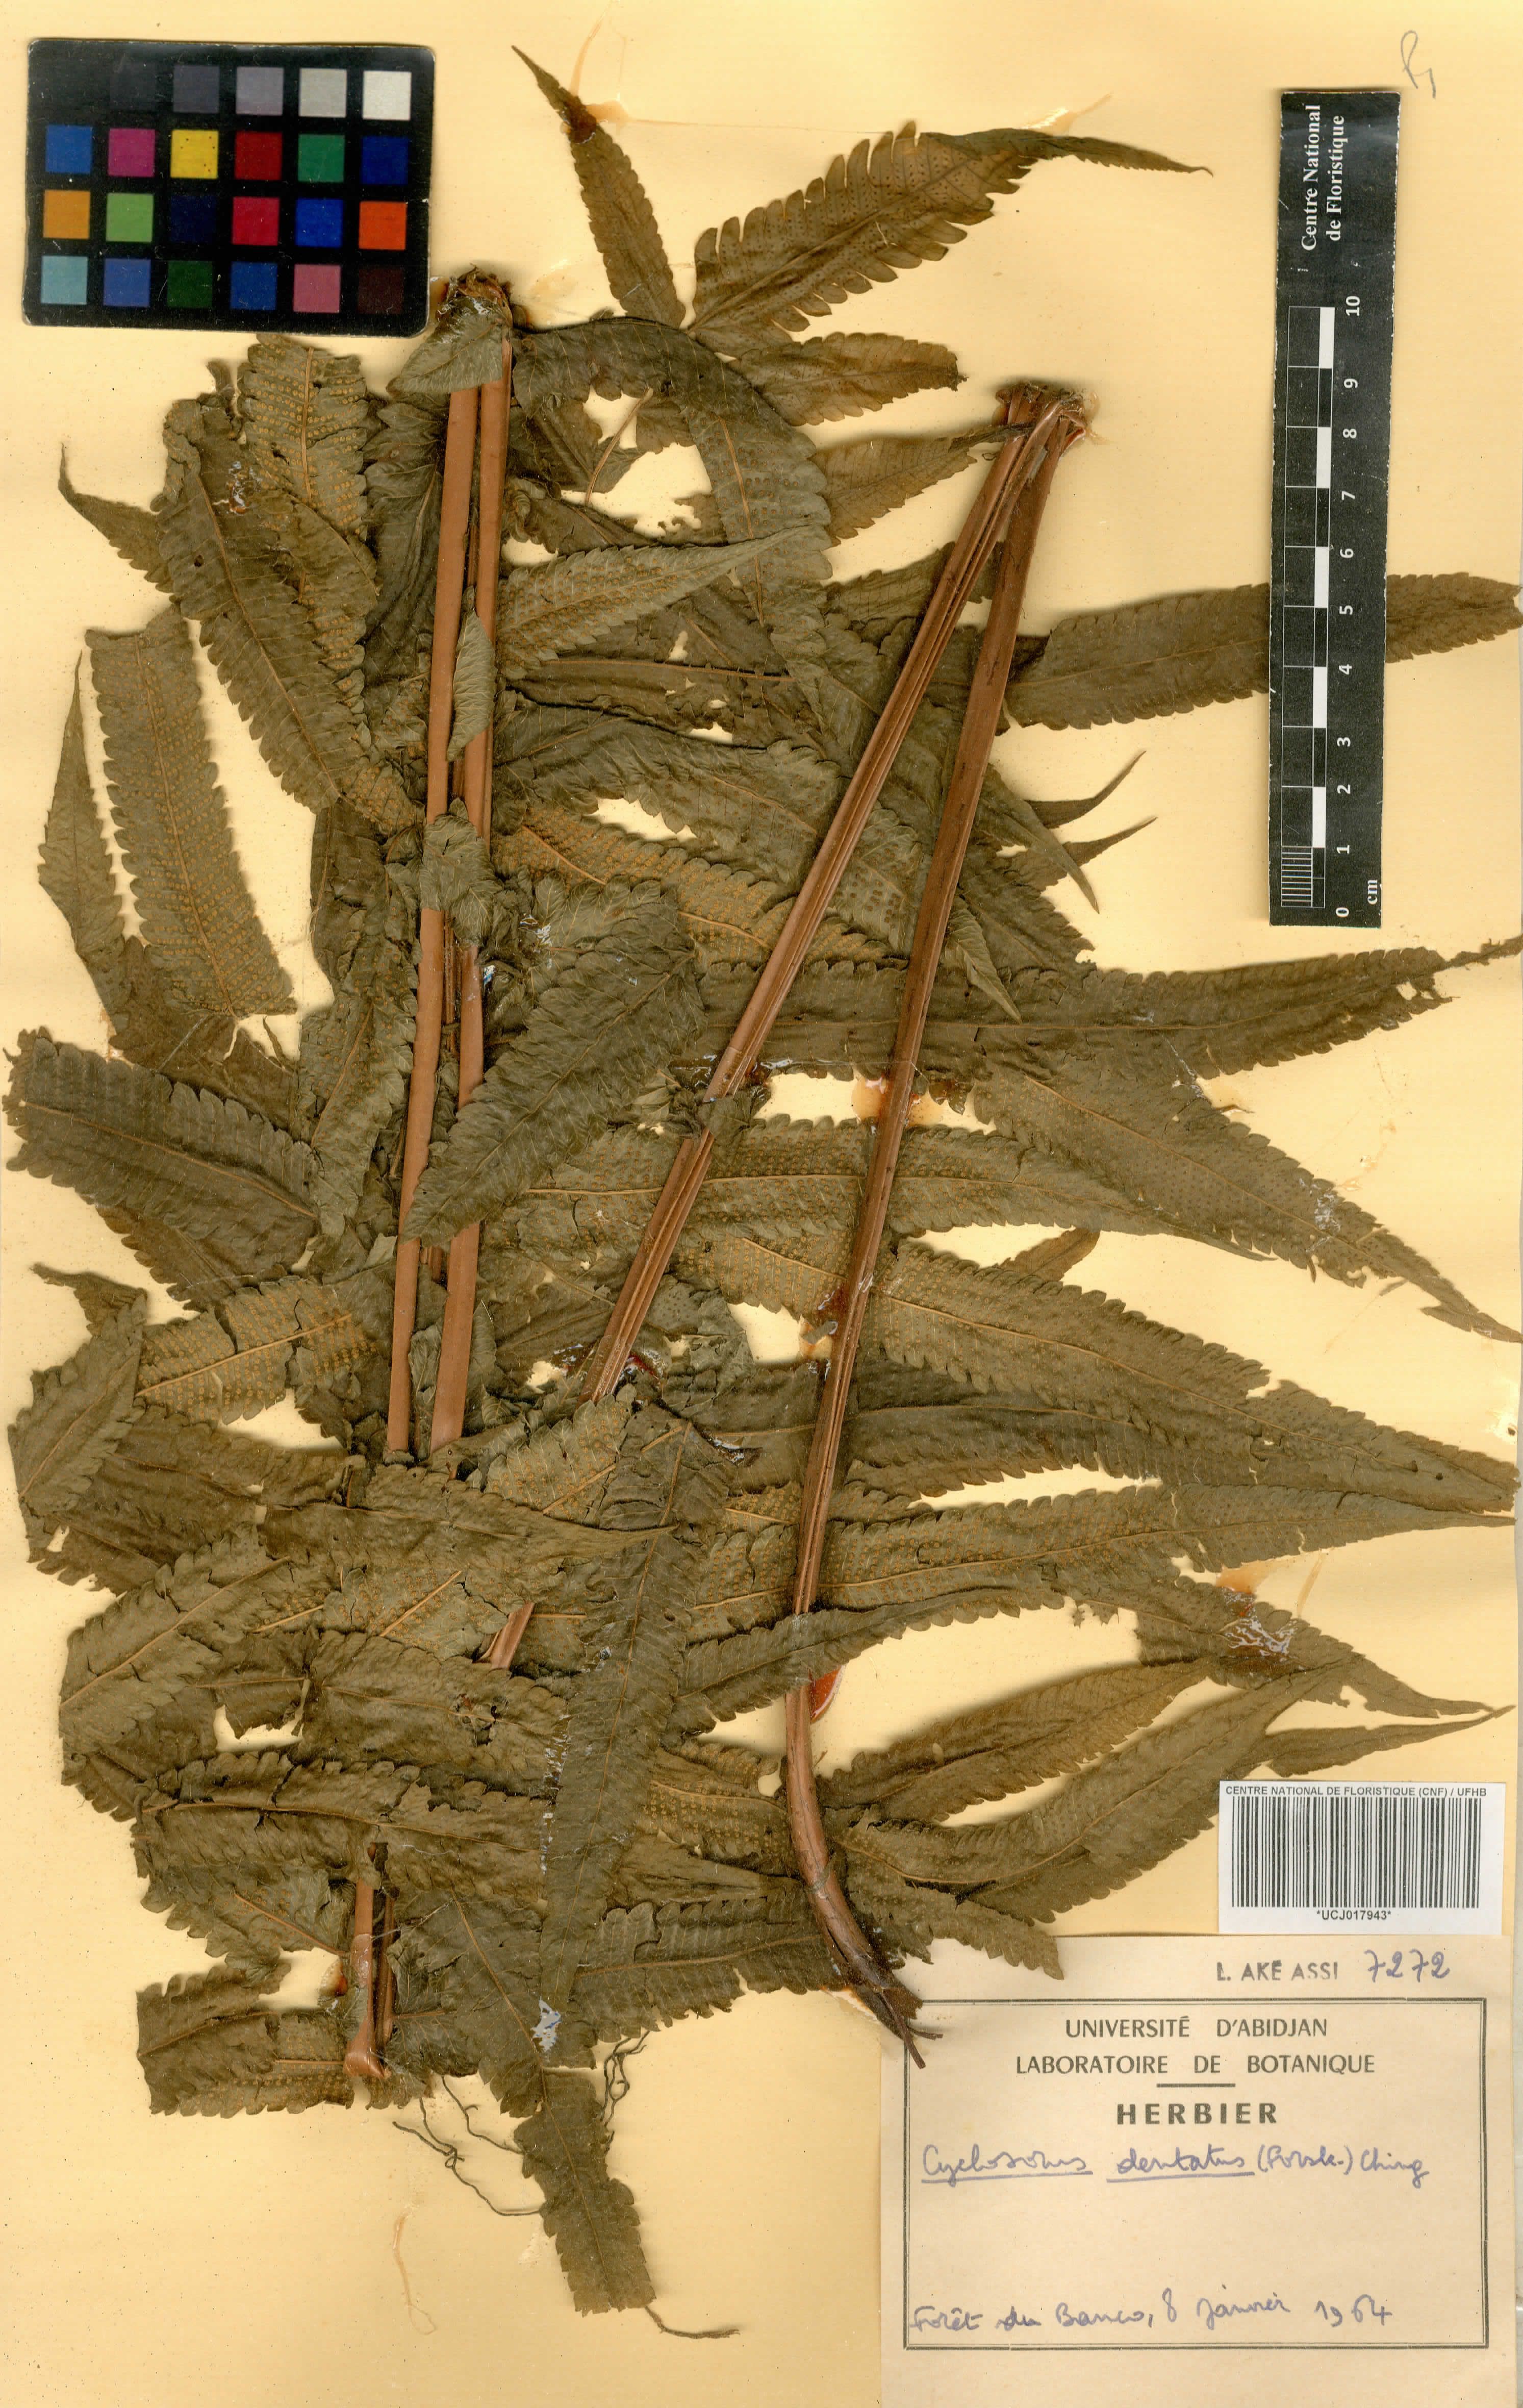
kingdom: Plantae
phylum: Tracheophyta
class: Polypodiopsida
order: Polypodiales
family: Thelypteridaceae
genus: Christella
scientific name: Christella dentata
